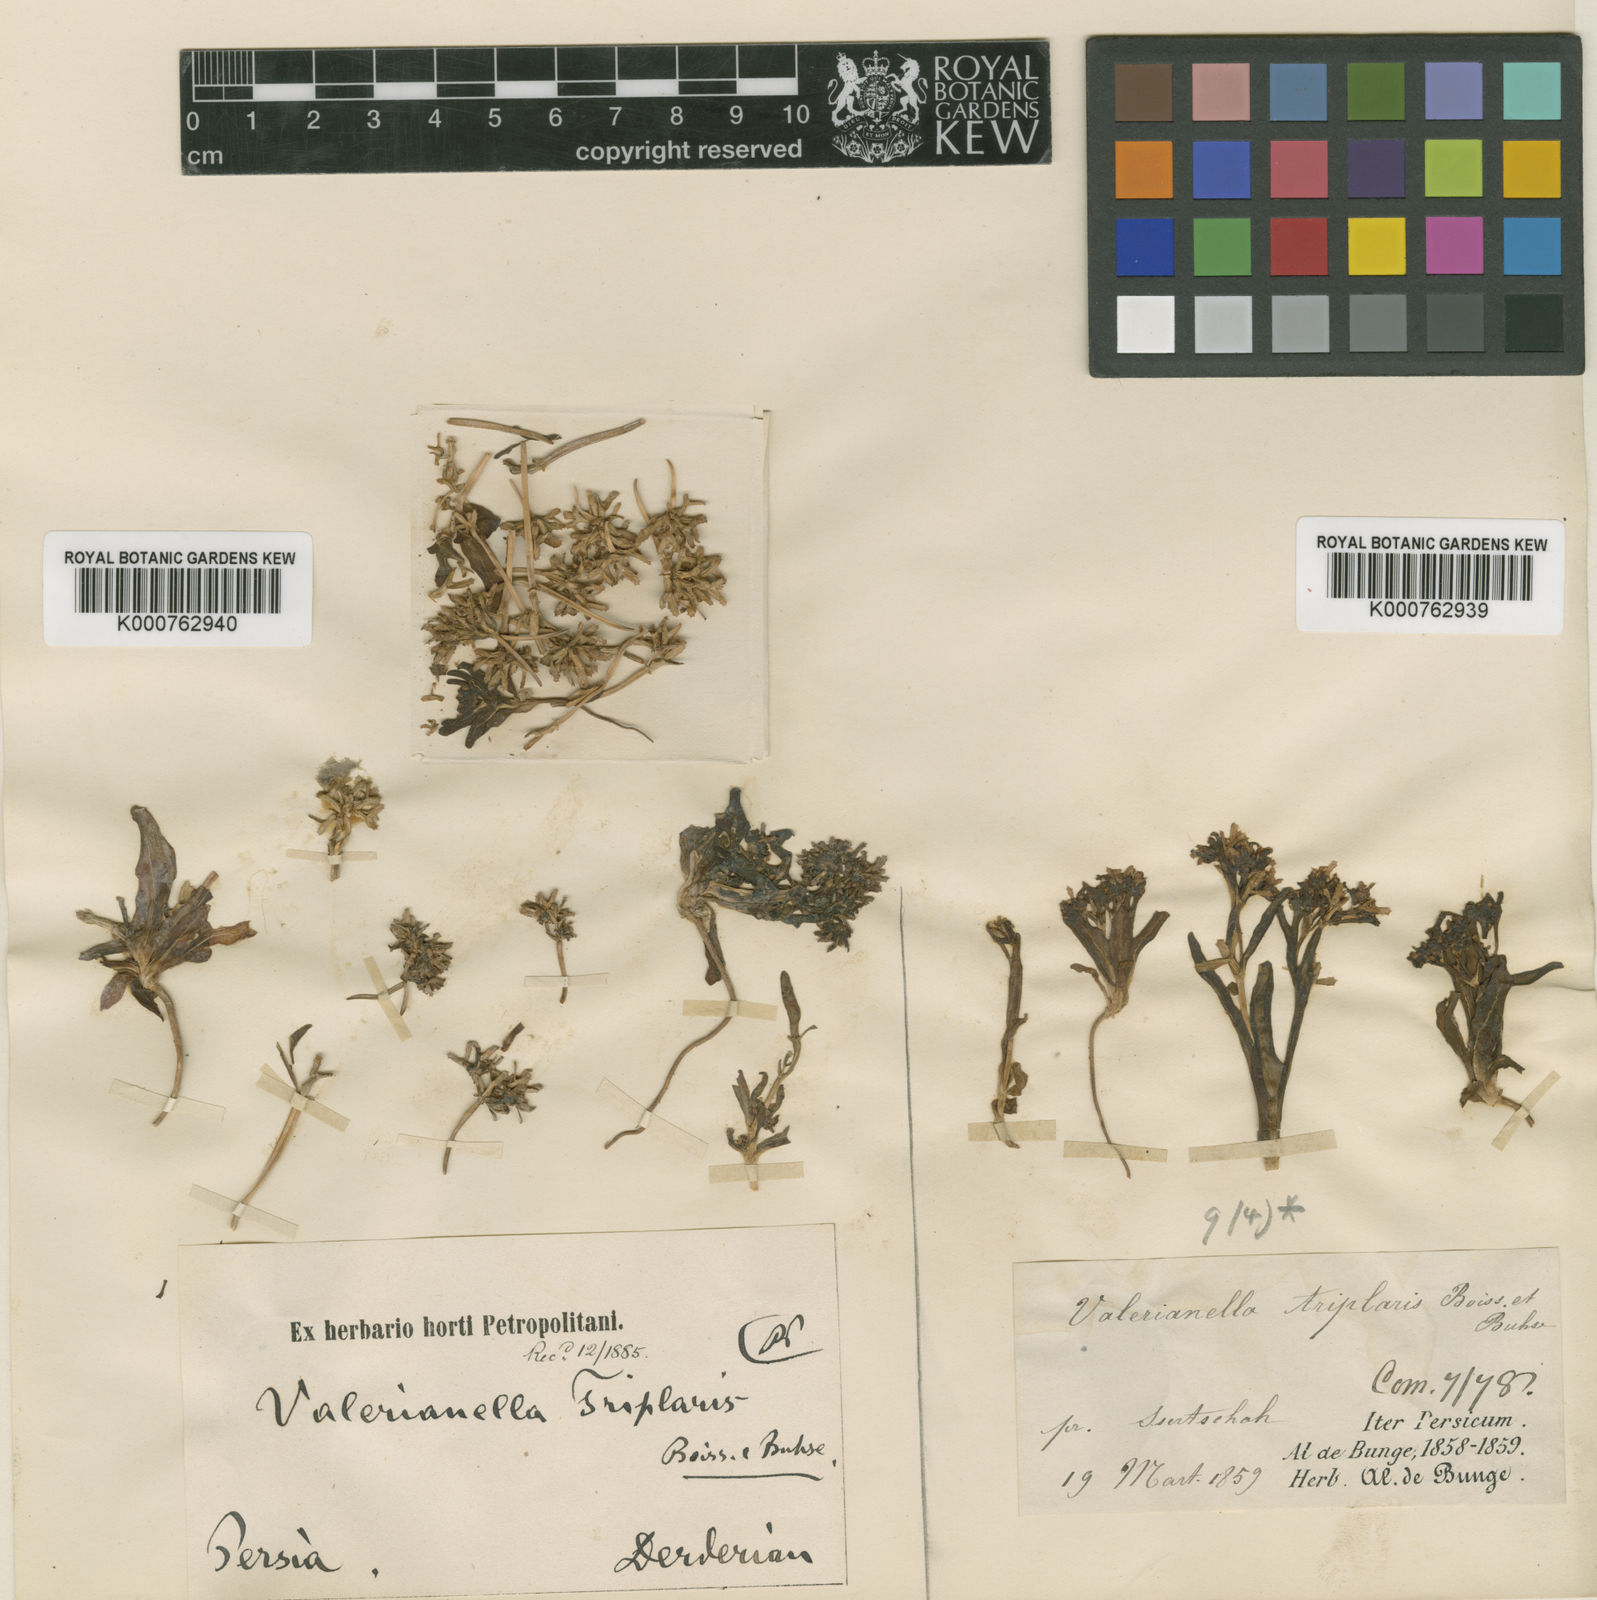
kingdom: Plantae
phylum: Tracheophyta
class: Magnoliopsida
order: Dipsacales
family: Caprifoliaceae
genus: Valerianella
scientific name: Valerianella triplaris
